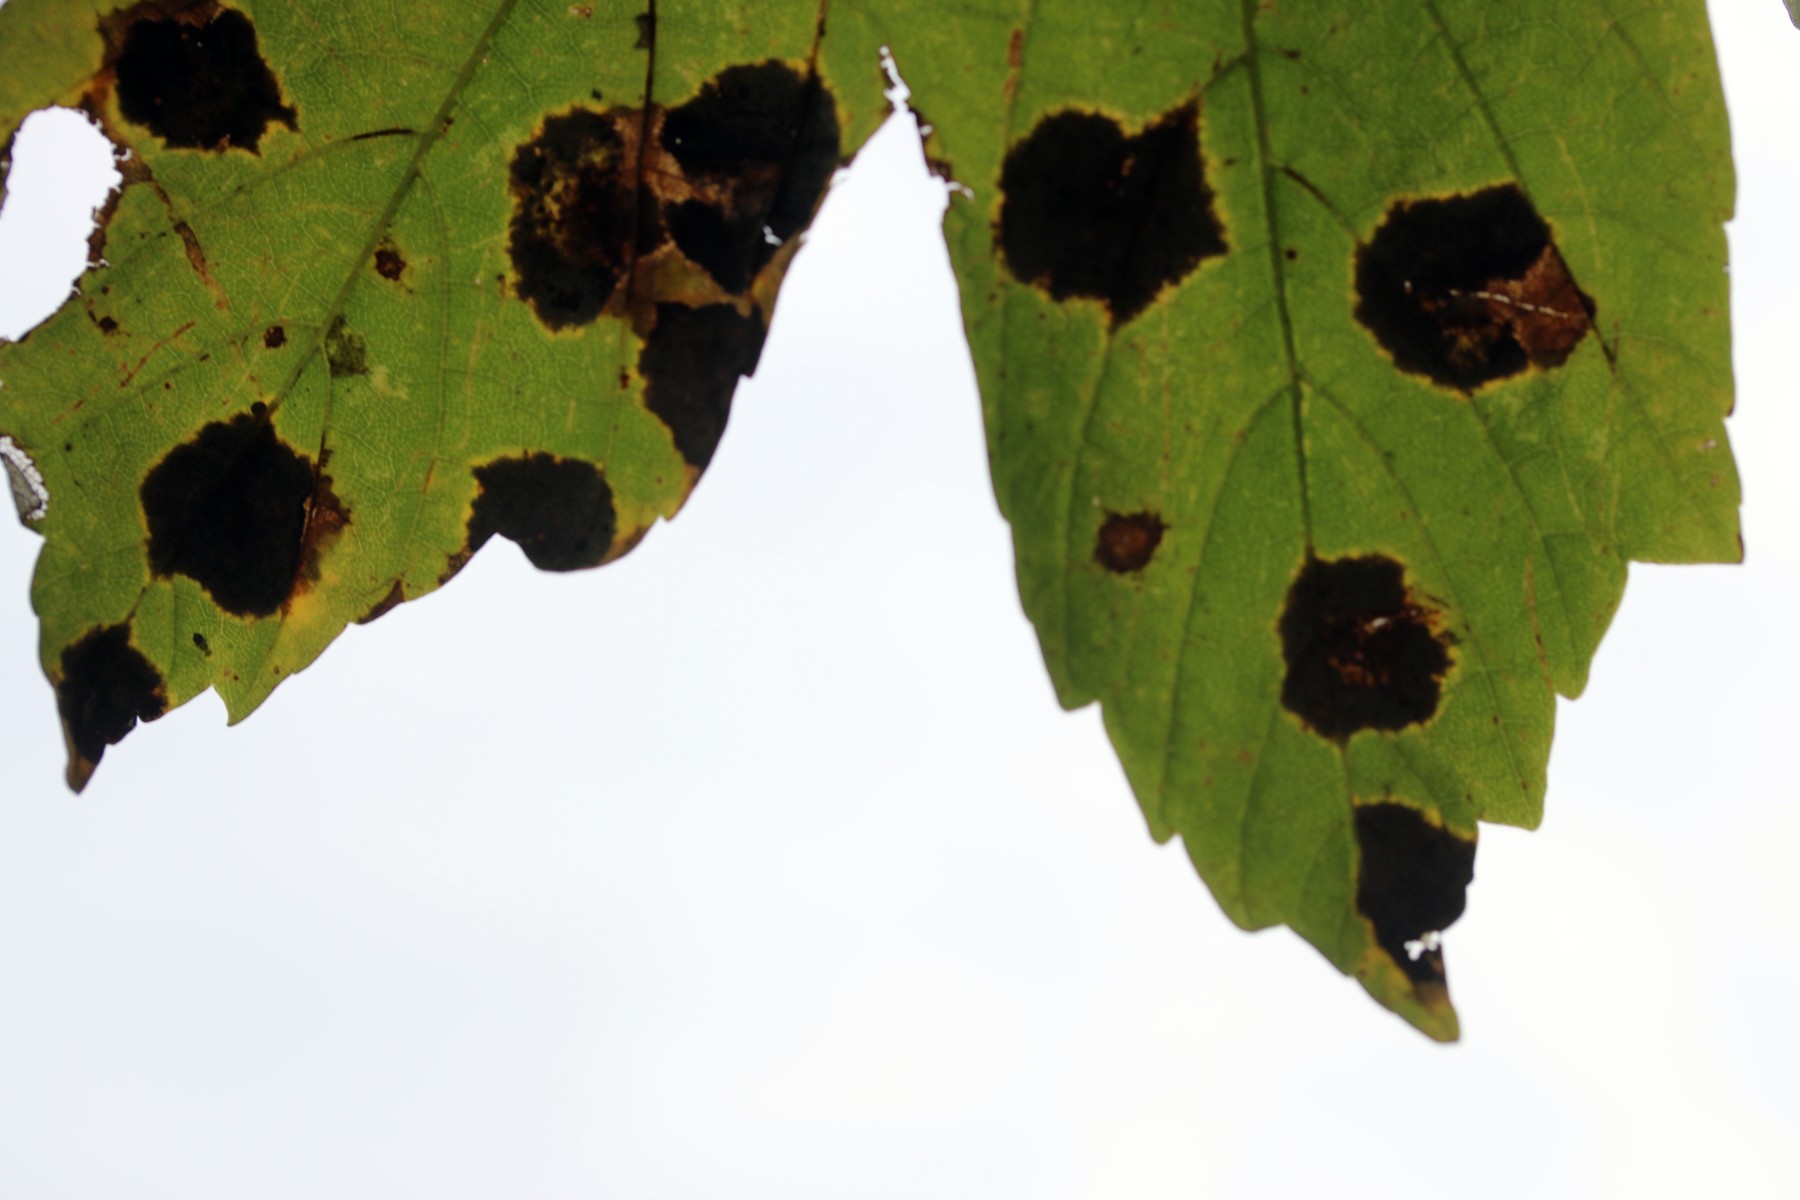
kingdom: Fungi
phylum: Ascomycota
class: Leotiomycetes
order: Rhytismatales
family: Rhytismataceae
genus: Rhytisma
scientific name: Rhytisma acerinum
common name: ahorn-rynkeplet
